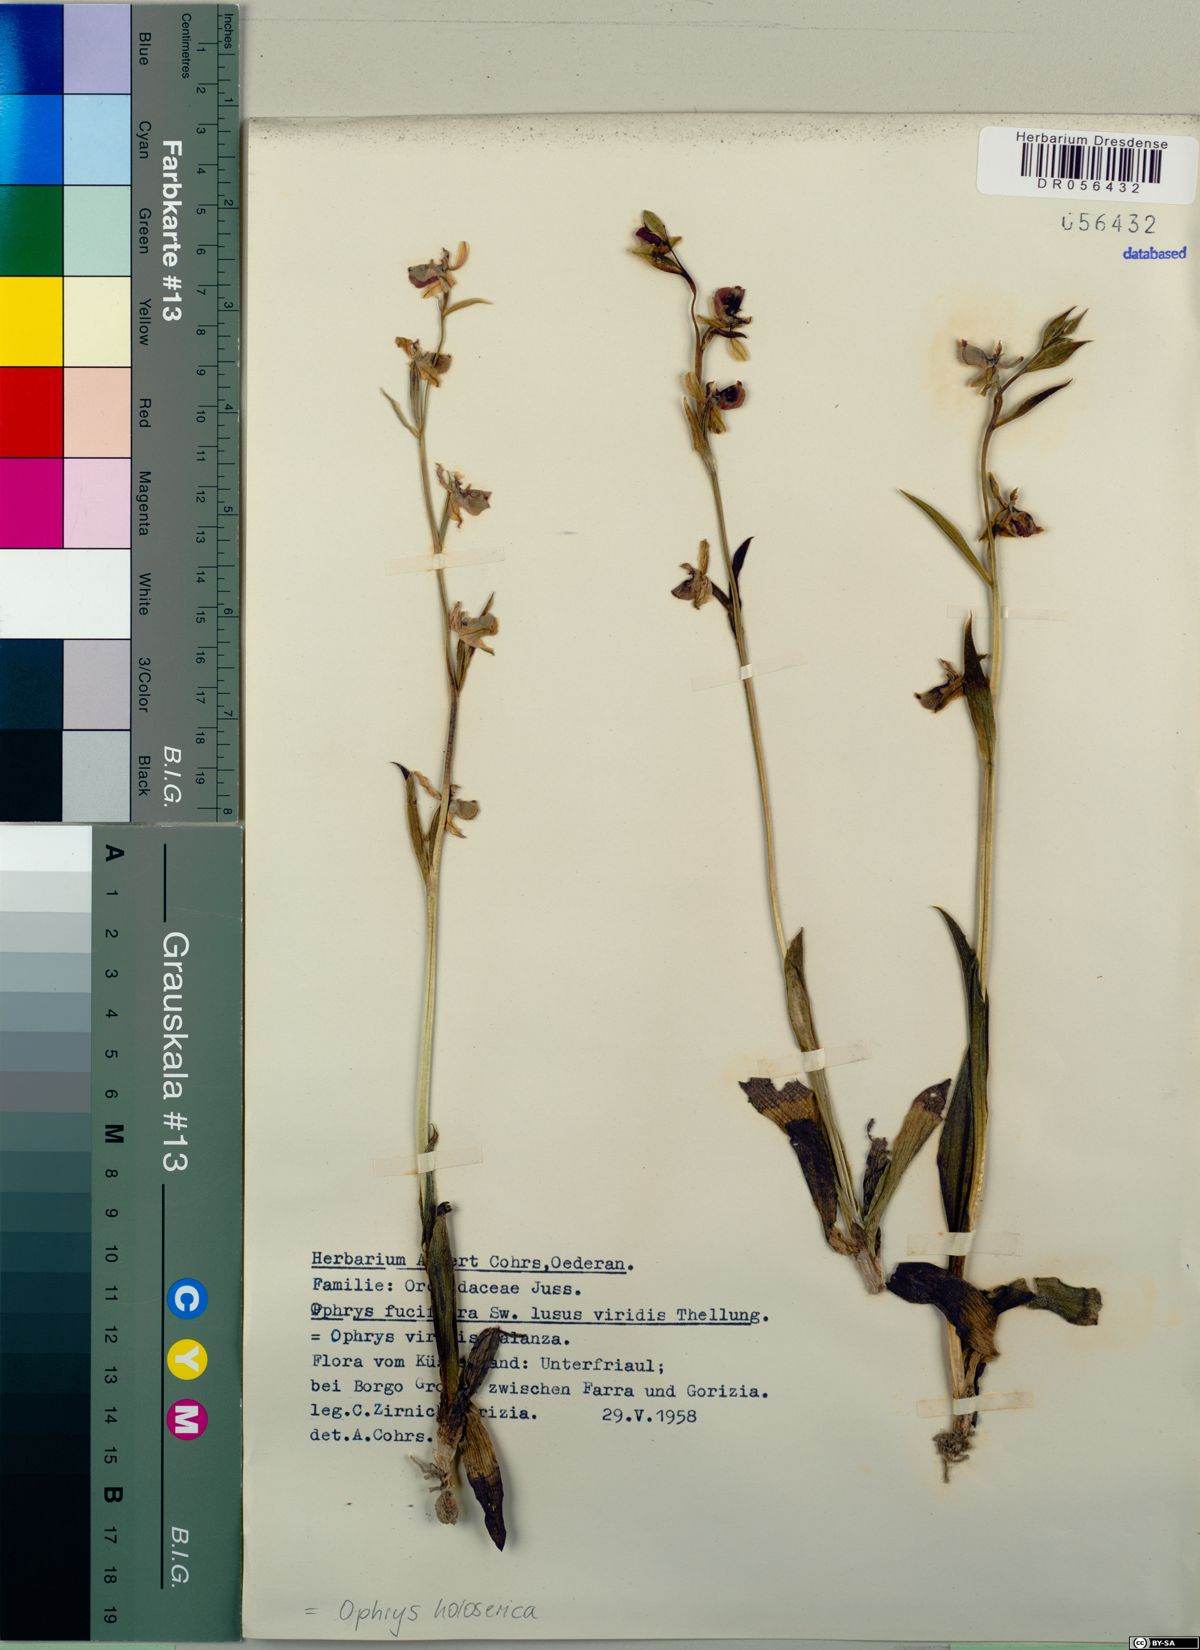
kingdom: Plantae
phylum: Tracheophyta
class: Liliopsida
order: Asparagales
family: Orchidaceae
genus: Ophrys
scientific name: Ophrys holosericea
